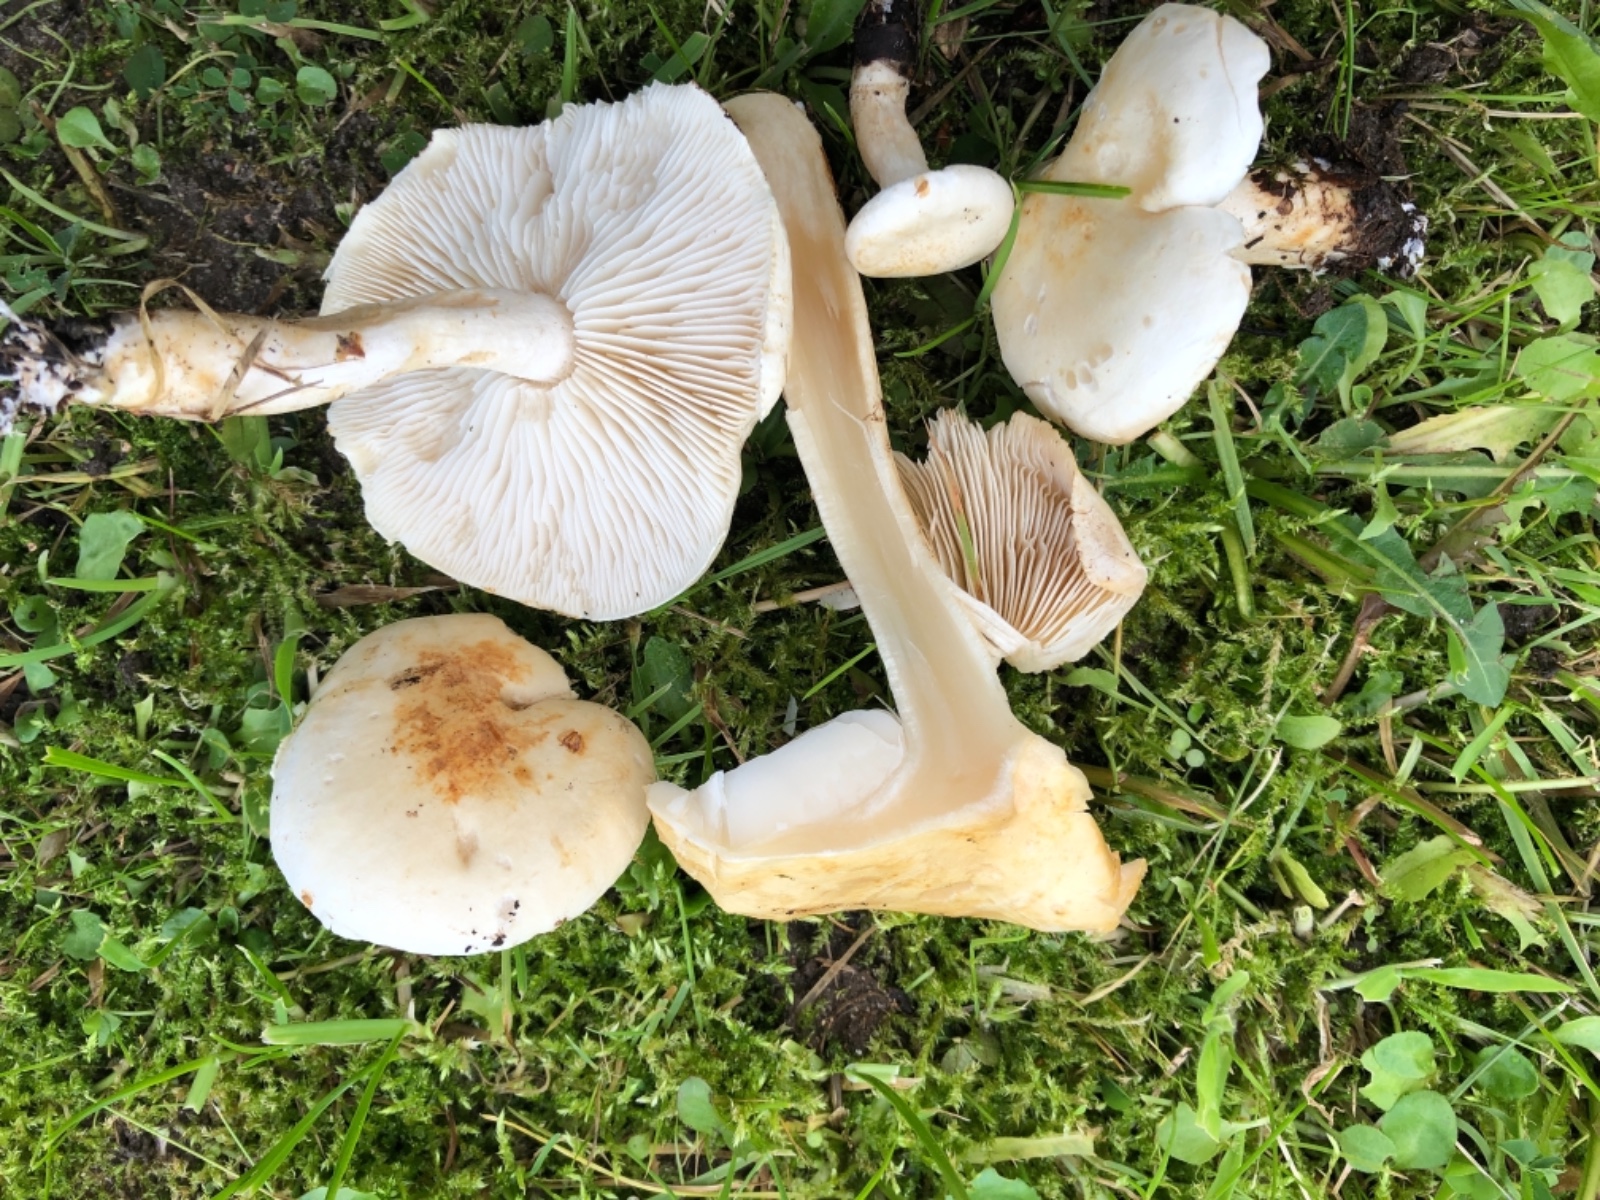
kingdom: Fungi
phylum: Basidiomycota
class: Agaricomycetes
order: Agaricales
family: Tricholomataceae
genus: Tricholoma
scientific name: Tricholoma stiparophyllum
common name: hvid ridderhat
